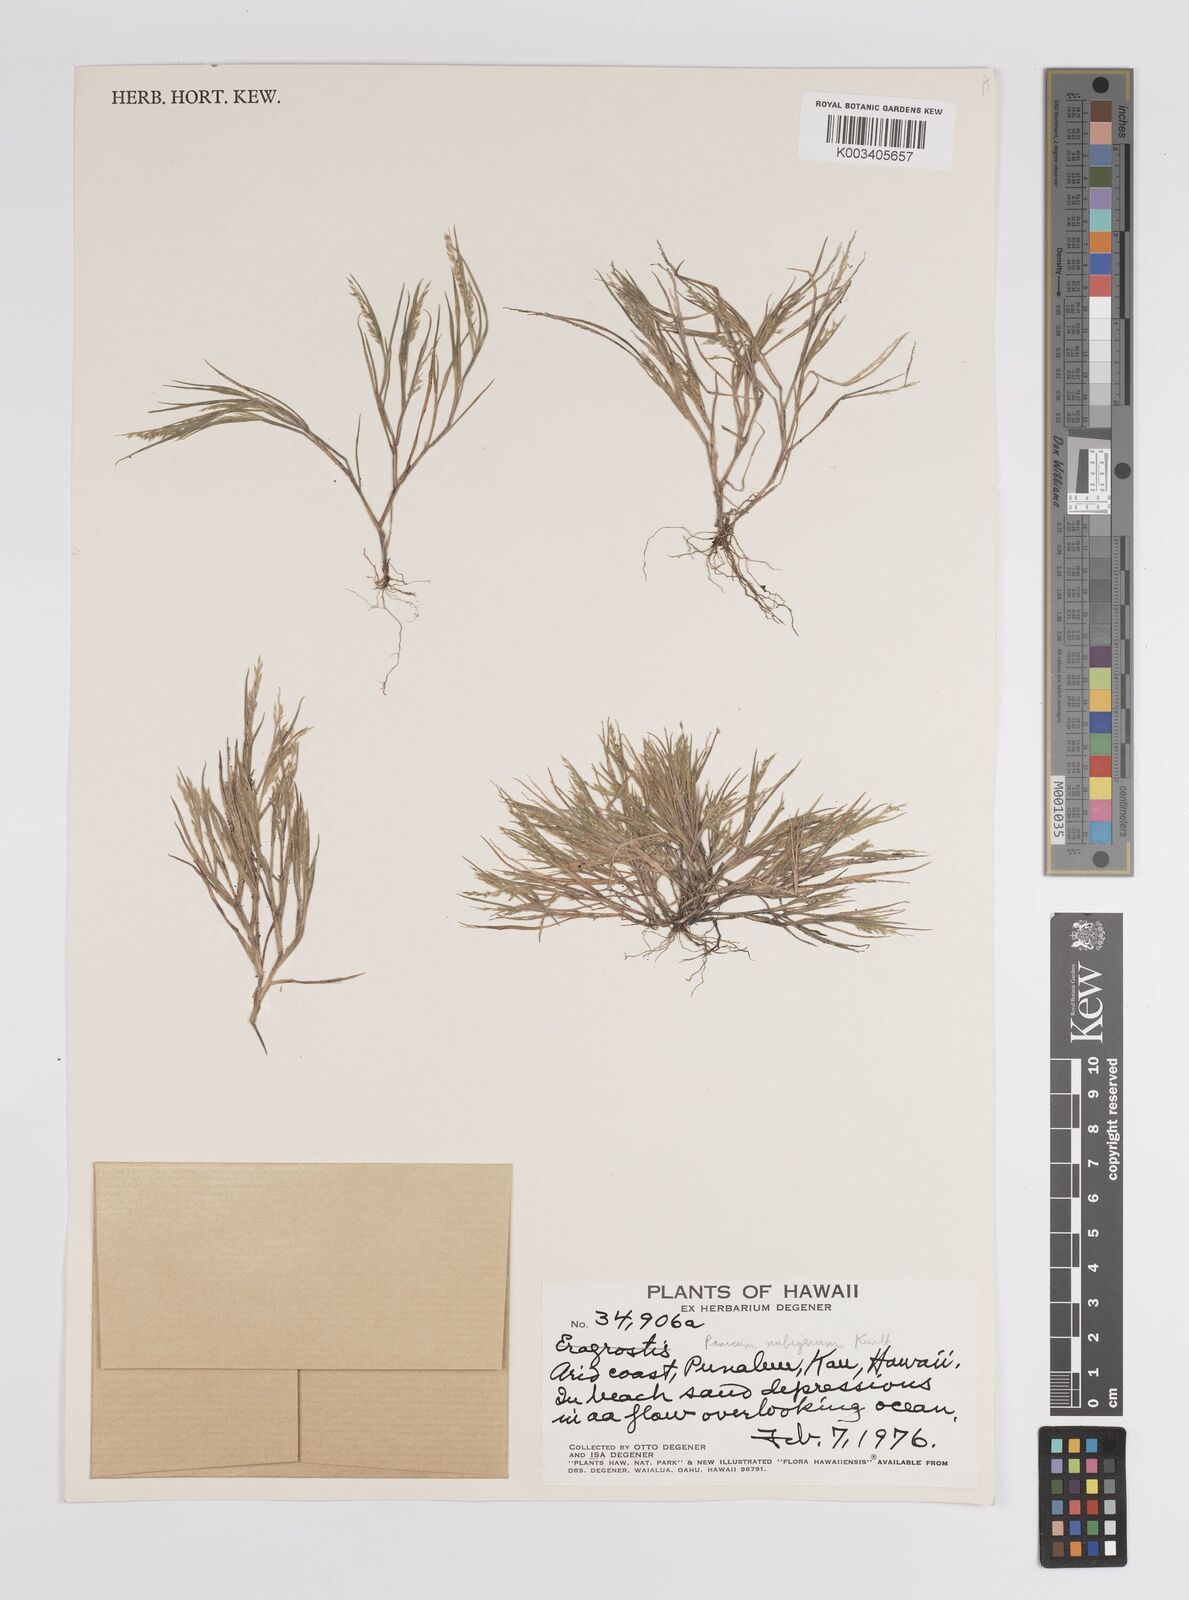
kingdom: Plantae
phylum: Tracheophyta
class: Liliopsida
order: Poales
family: Poaceae
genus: Panicum
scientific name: Panicum fauriei
